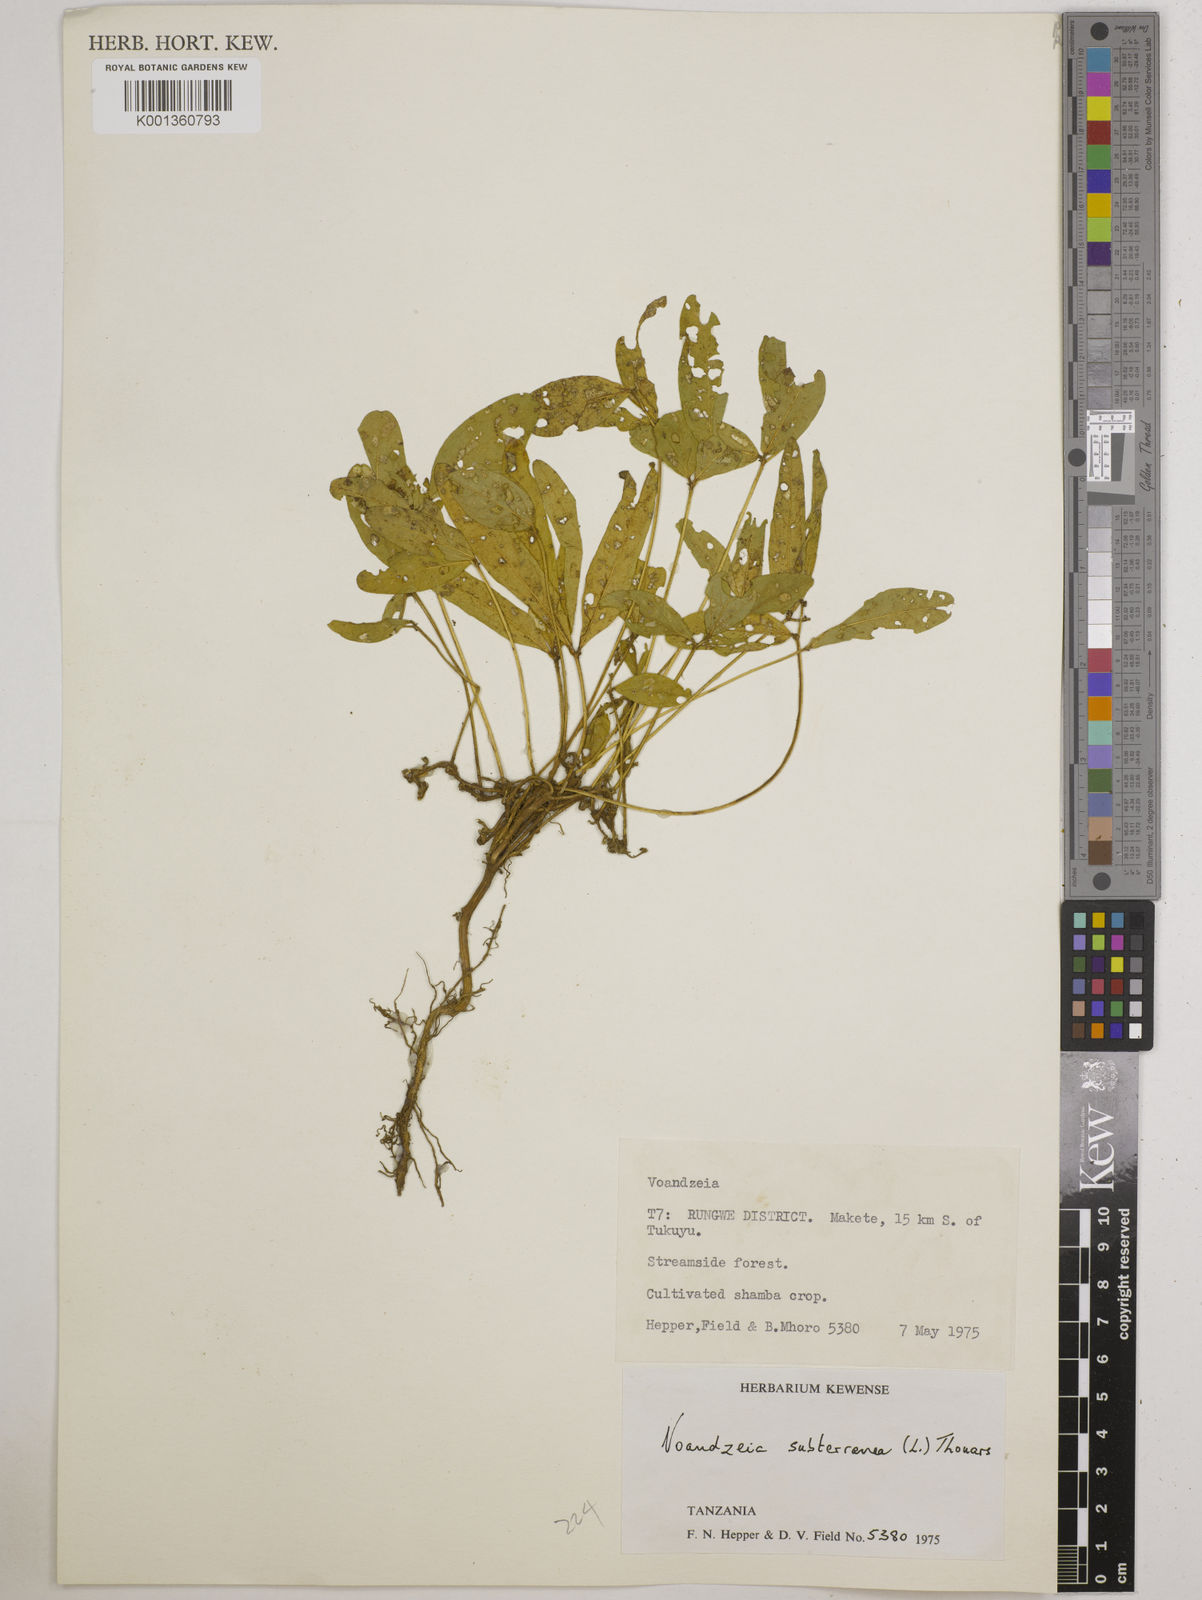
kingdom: Plantae
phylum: Tracheophyta
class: Magnoliopsida
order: Fabales
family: Fabaceae
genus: Vigna
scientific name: Vigna subterranea
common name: Bambara groundnut
